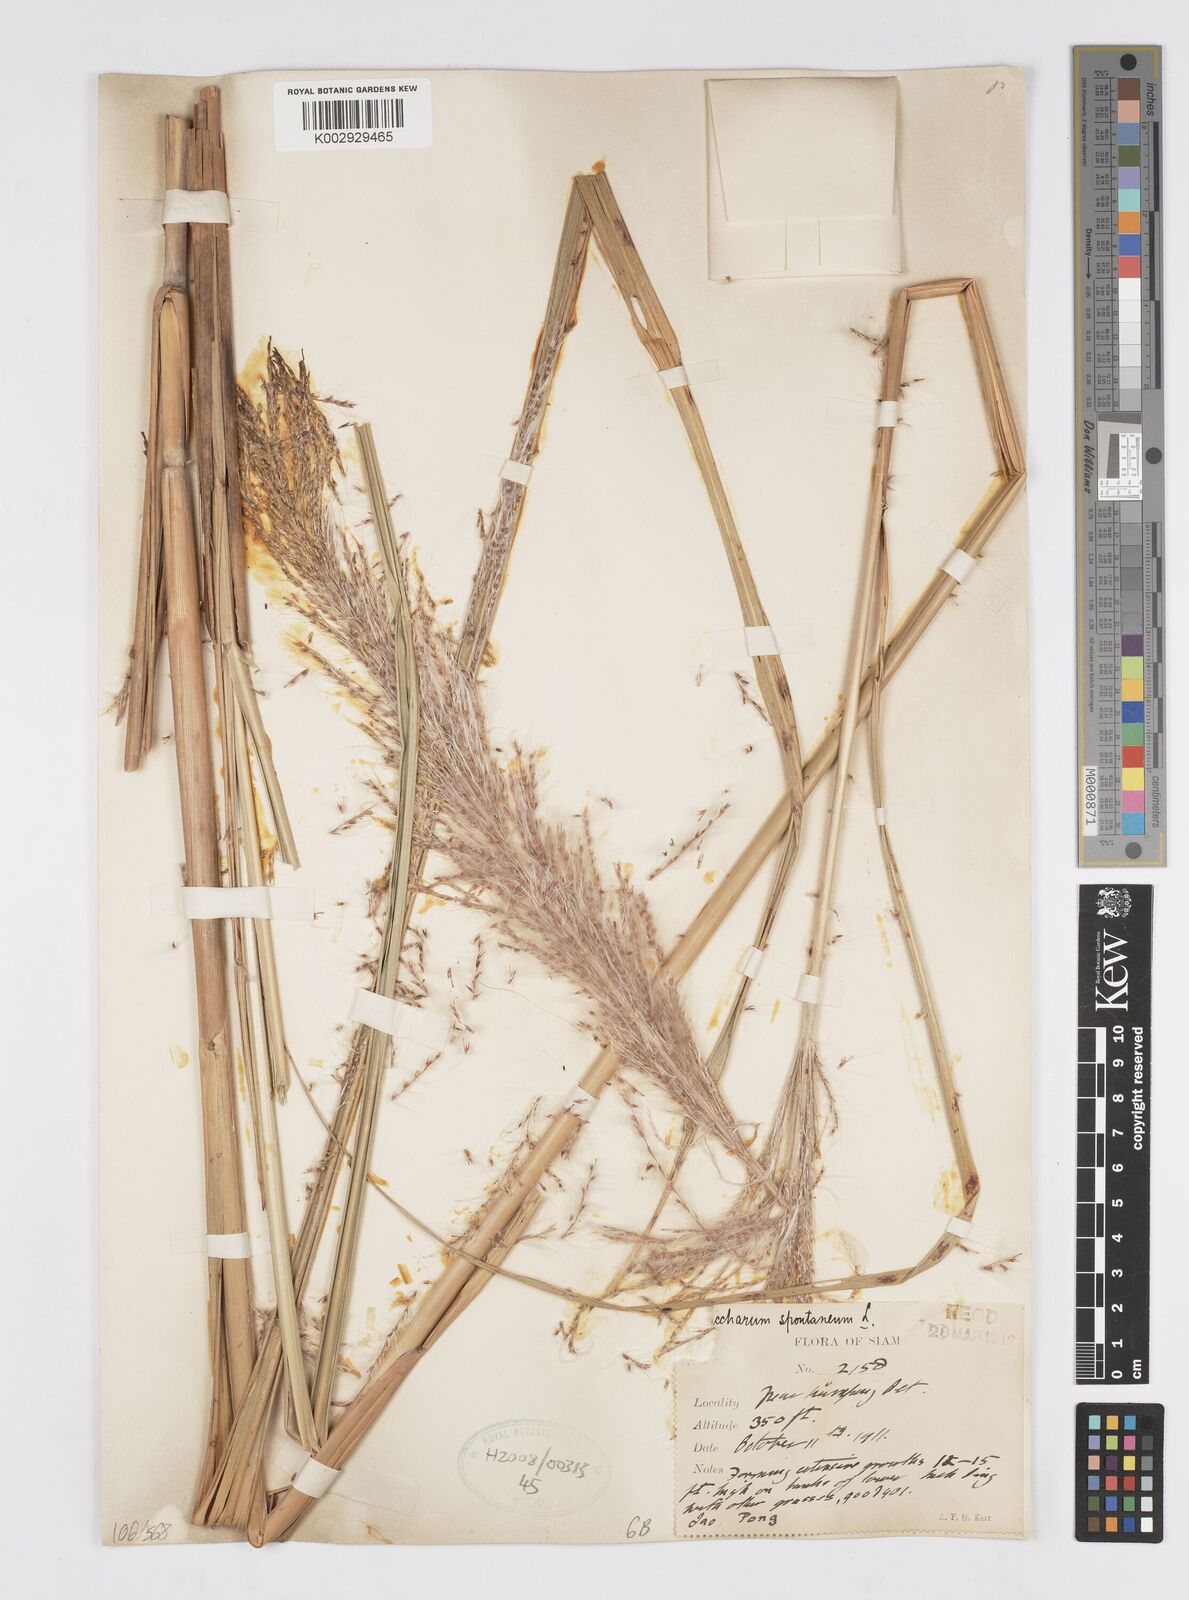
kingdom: Plantae
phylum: Tracheophyta
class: Liliopsida
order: Poales
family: Poaceae
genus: Saccharum
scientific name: Saccharum spontaneum
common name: Wild sugarcane
